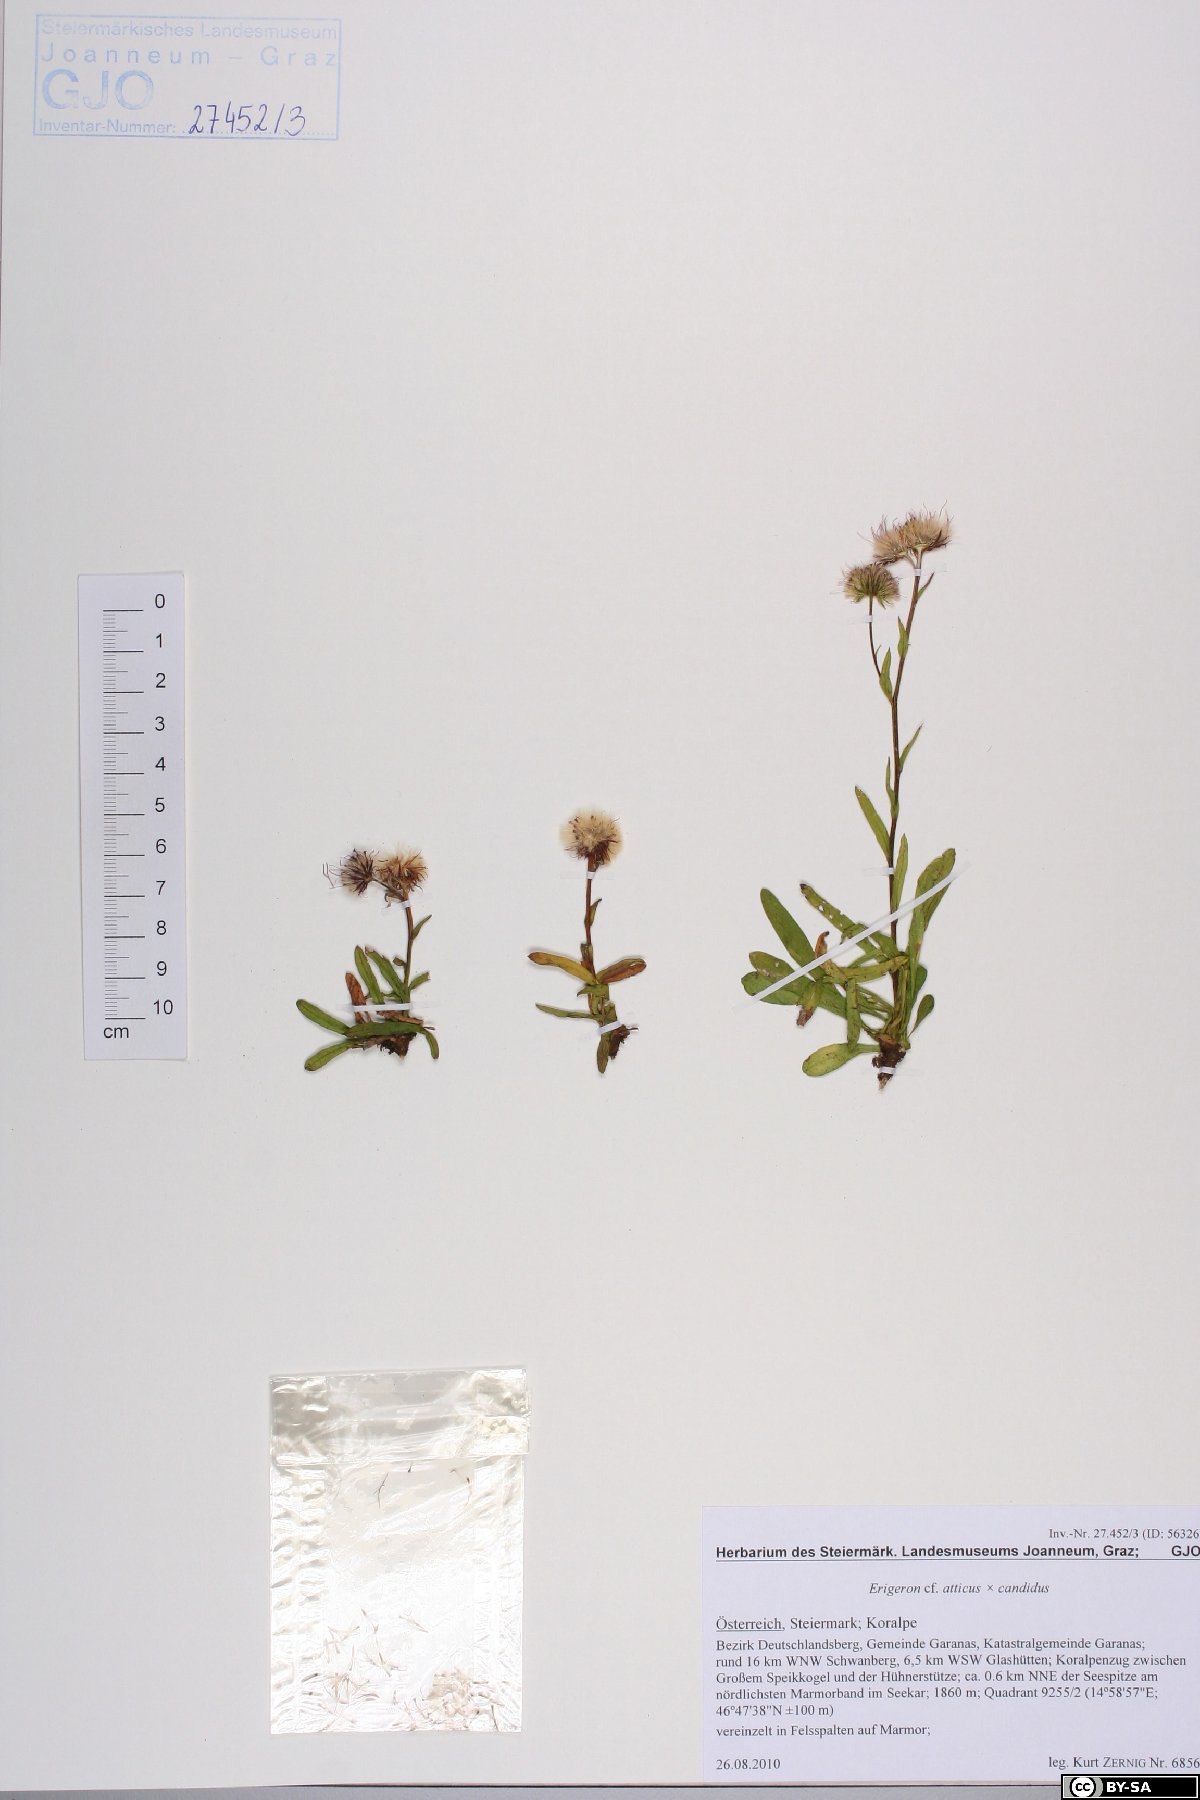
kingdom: Plantae
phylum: Tracheophyta
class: Magnoliopsida
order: Asterales
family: Asteraceae
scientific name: Asteraceae
